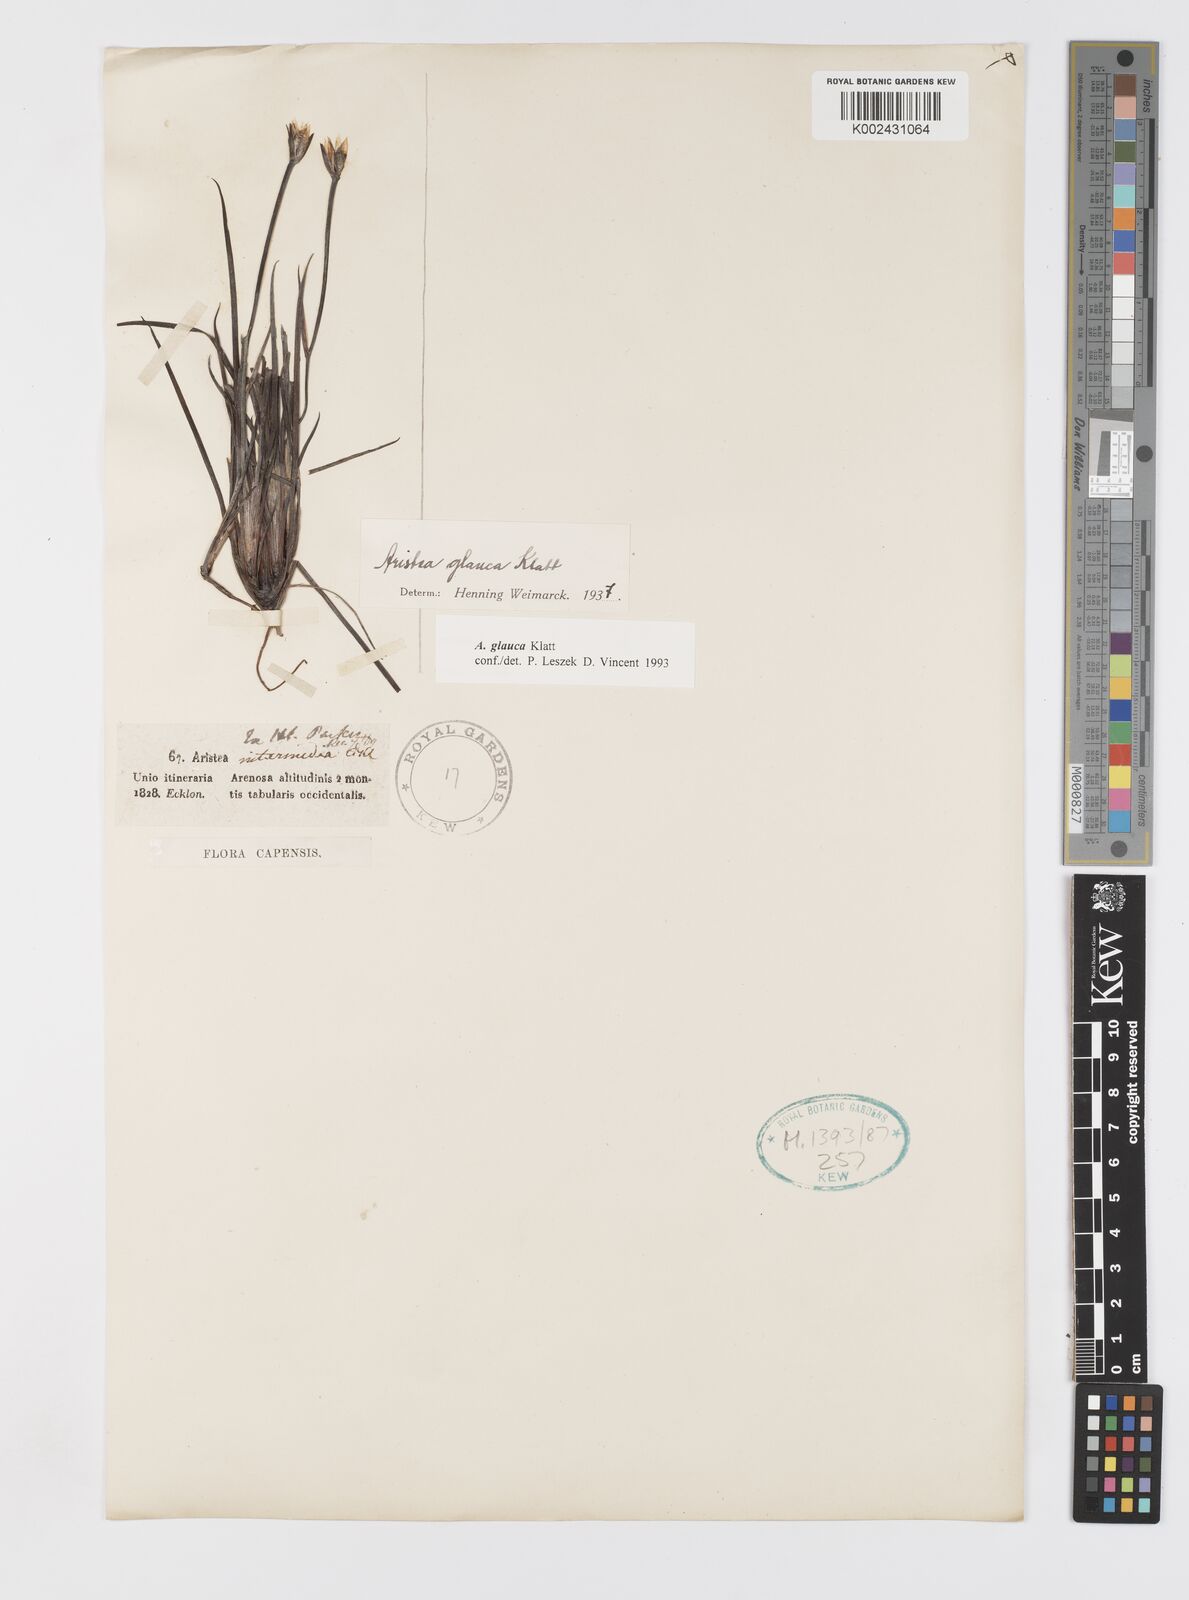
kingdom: Plantae
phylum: Tracheophyta
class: Liliopsida
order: Asparagales
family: Iridaceae
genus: Aristea
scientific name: Aristea glauca
